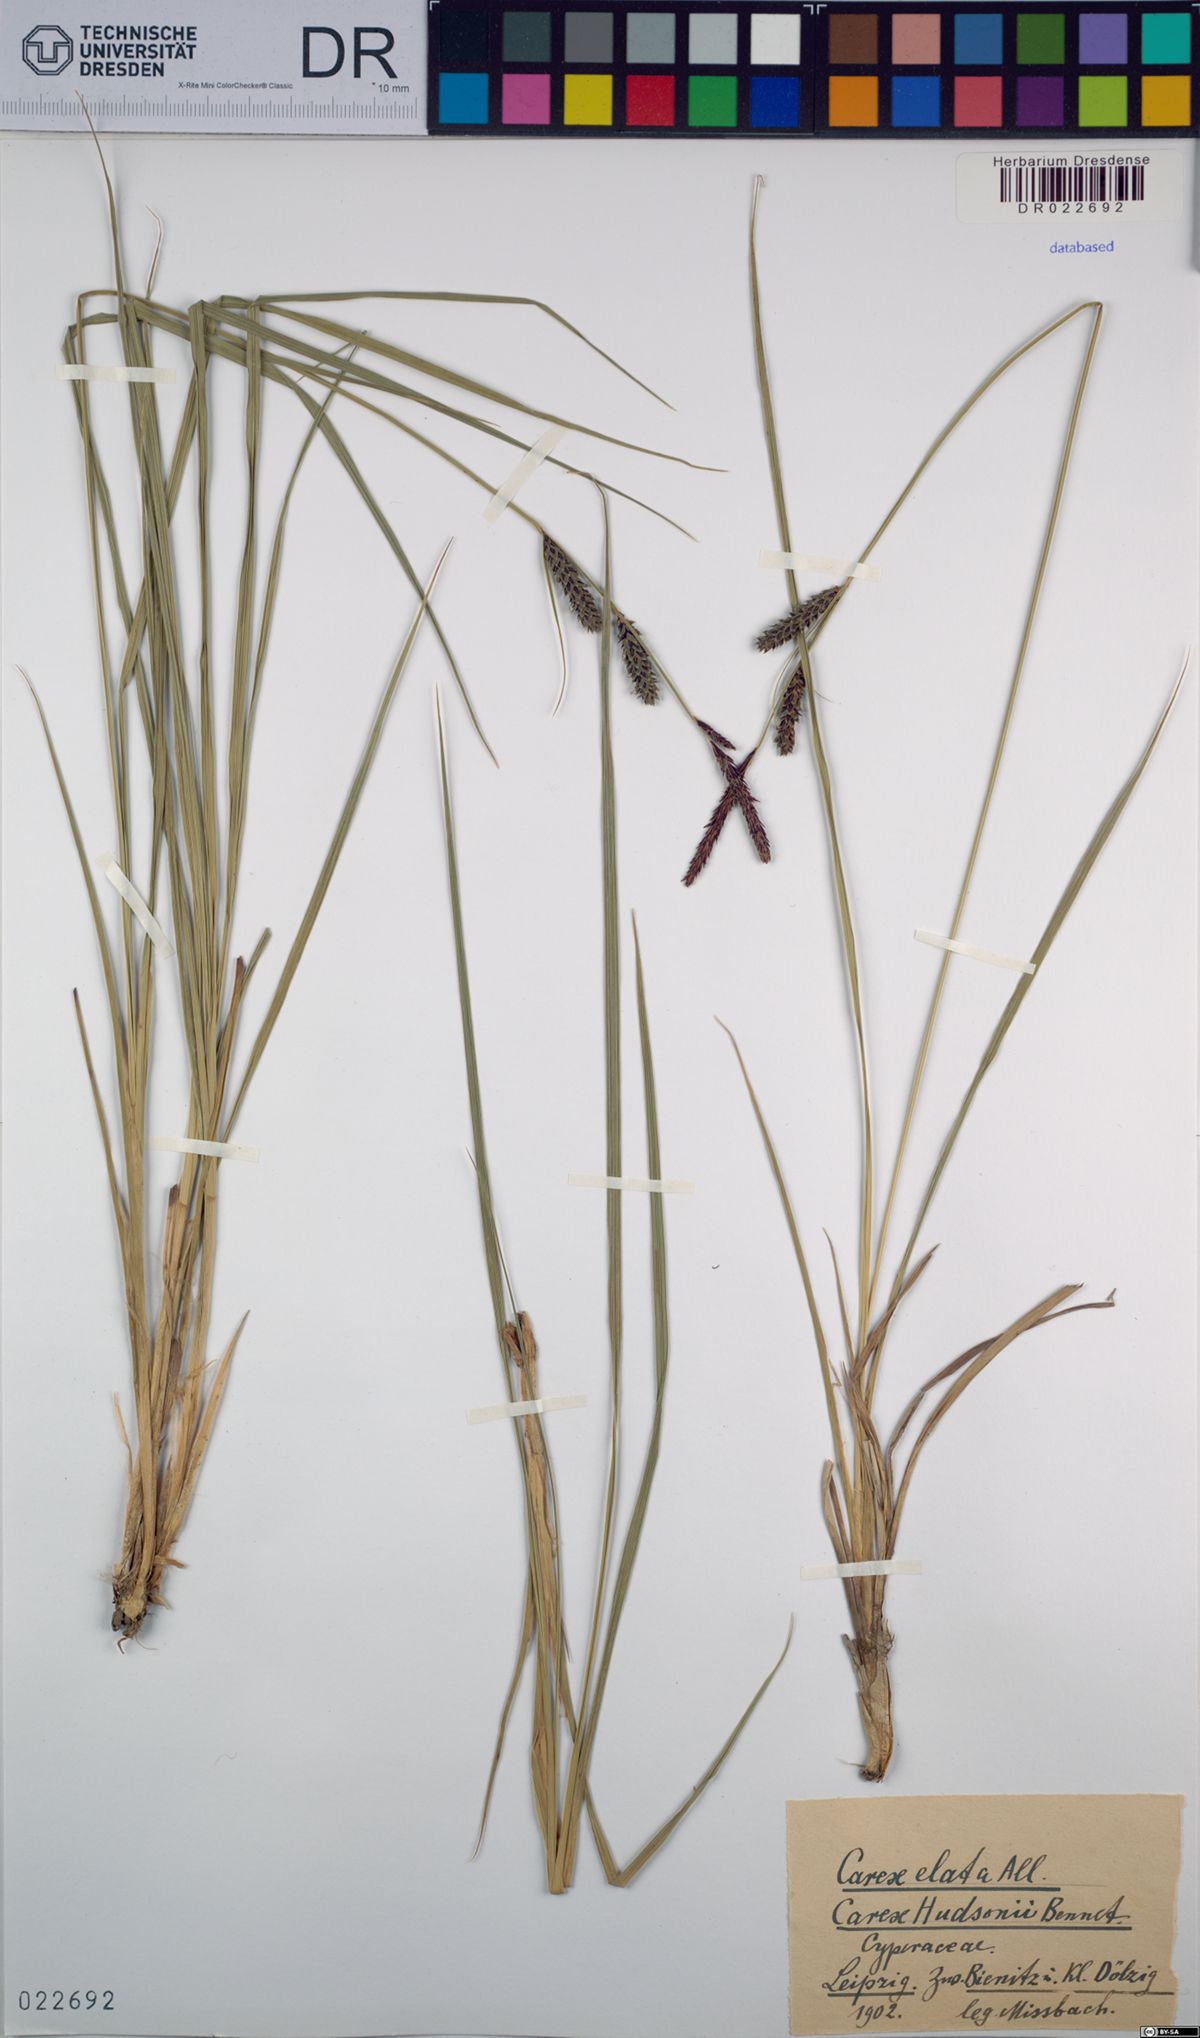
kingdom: Plantae
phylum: Tracheophyta
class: Liliopsida
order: Poales
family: Cyperaceae
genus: Carex
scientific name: Carex elata
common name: Tufted sedge
